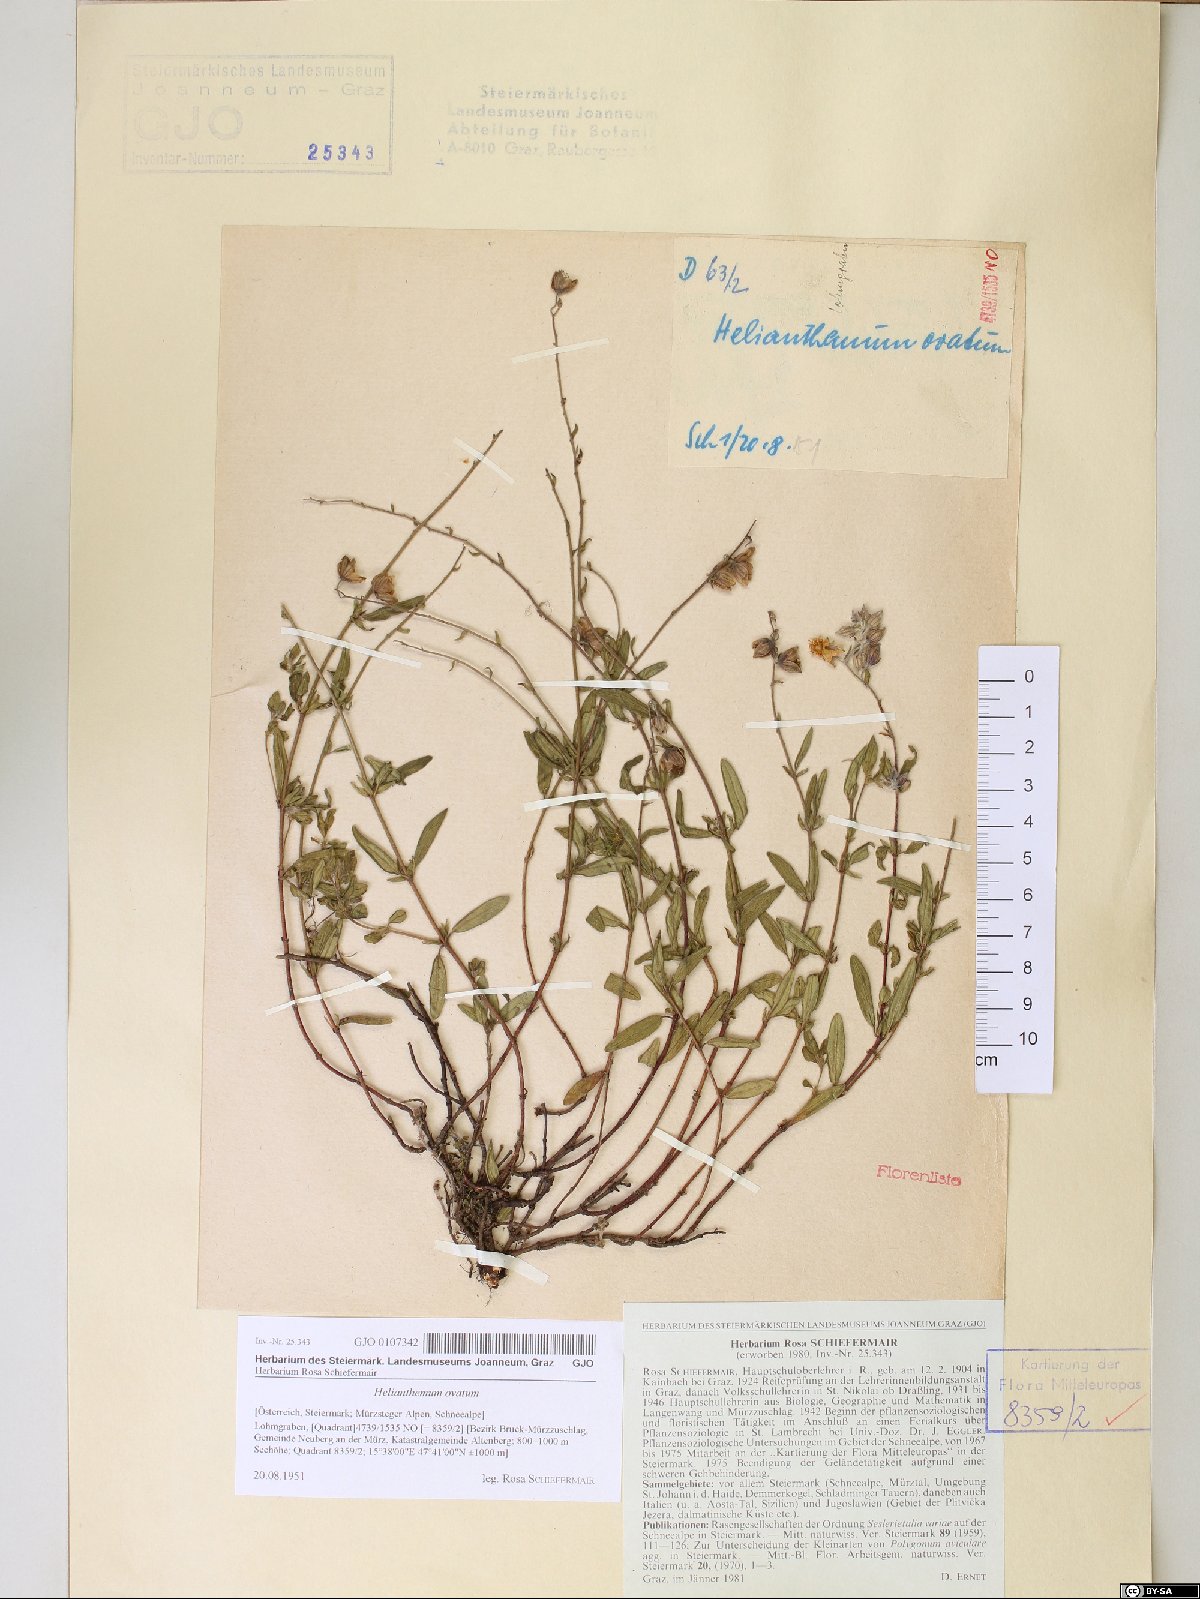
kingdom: Plantae
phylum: Tracheophyta
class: Magnoliopsida
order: Malvales
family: Cistaceae
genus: Helianthemum
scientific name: Helianthemum nummularium
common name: Common rock-rose
